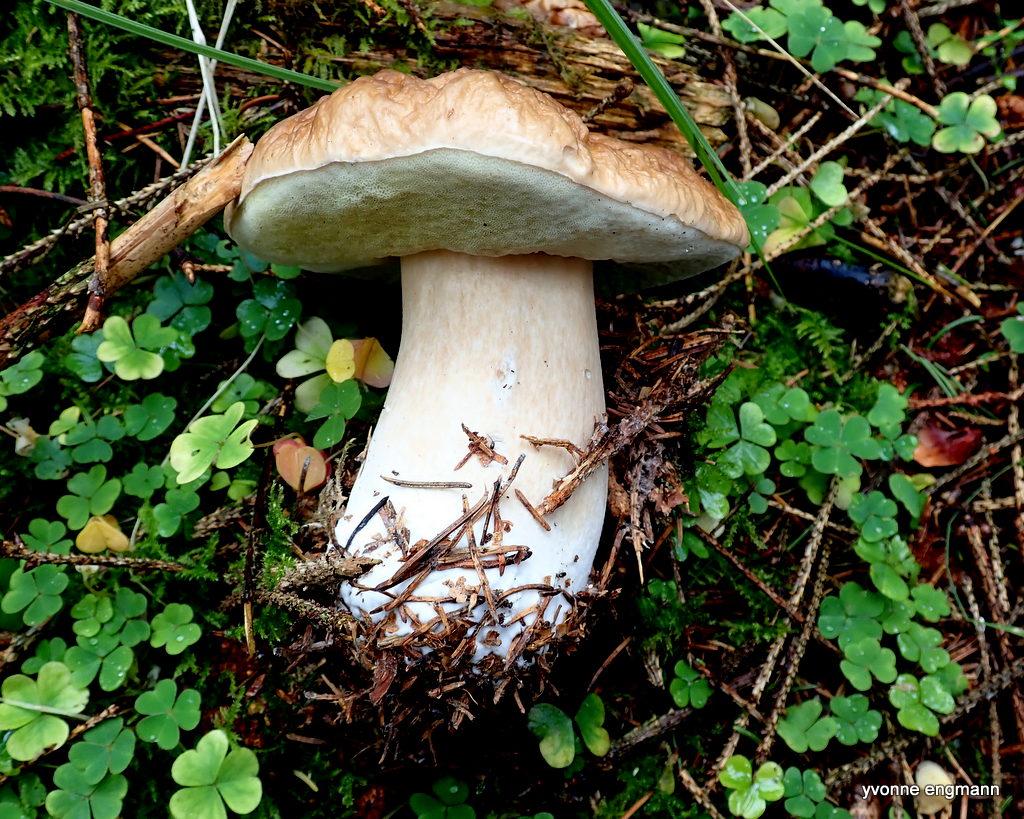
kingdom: Fungi
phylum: Basidiomycota
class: Agaricomycetes
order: Boletales
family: Boletaceae
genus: Boletus
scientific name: Boletus edulis
